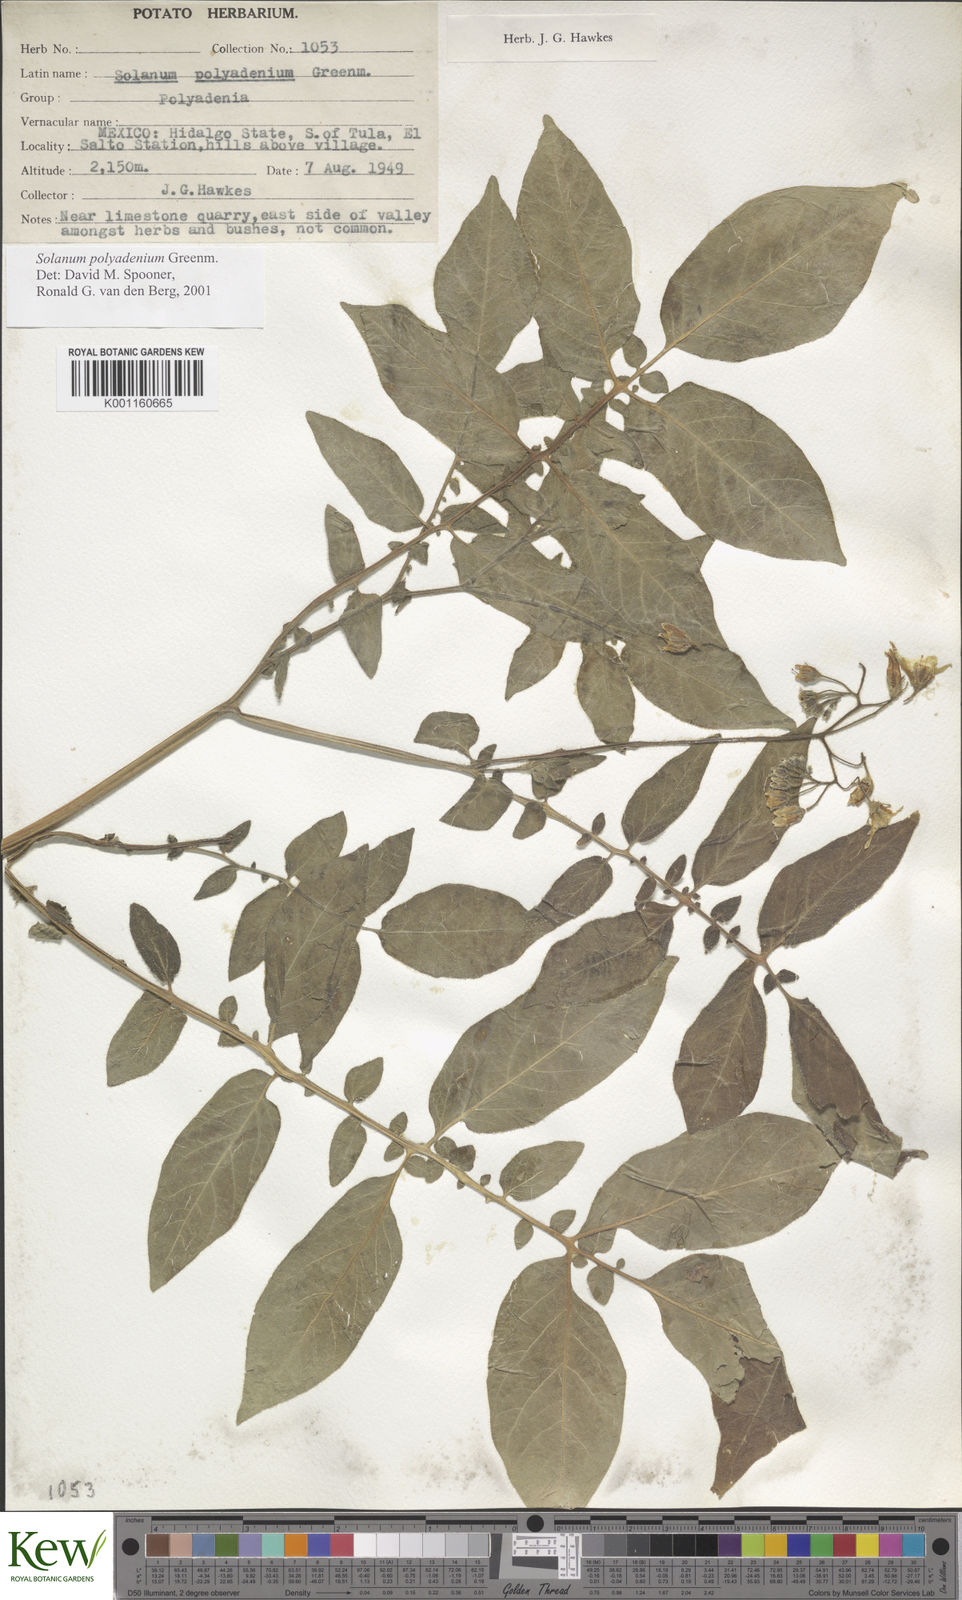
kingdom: Plantae
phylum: Tracheophyta
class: Magnoliopsida
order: Solanales
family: Solanaceae
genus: Solanum
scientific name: Solanum polyadenium
